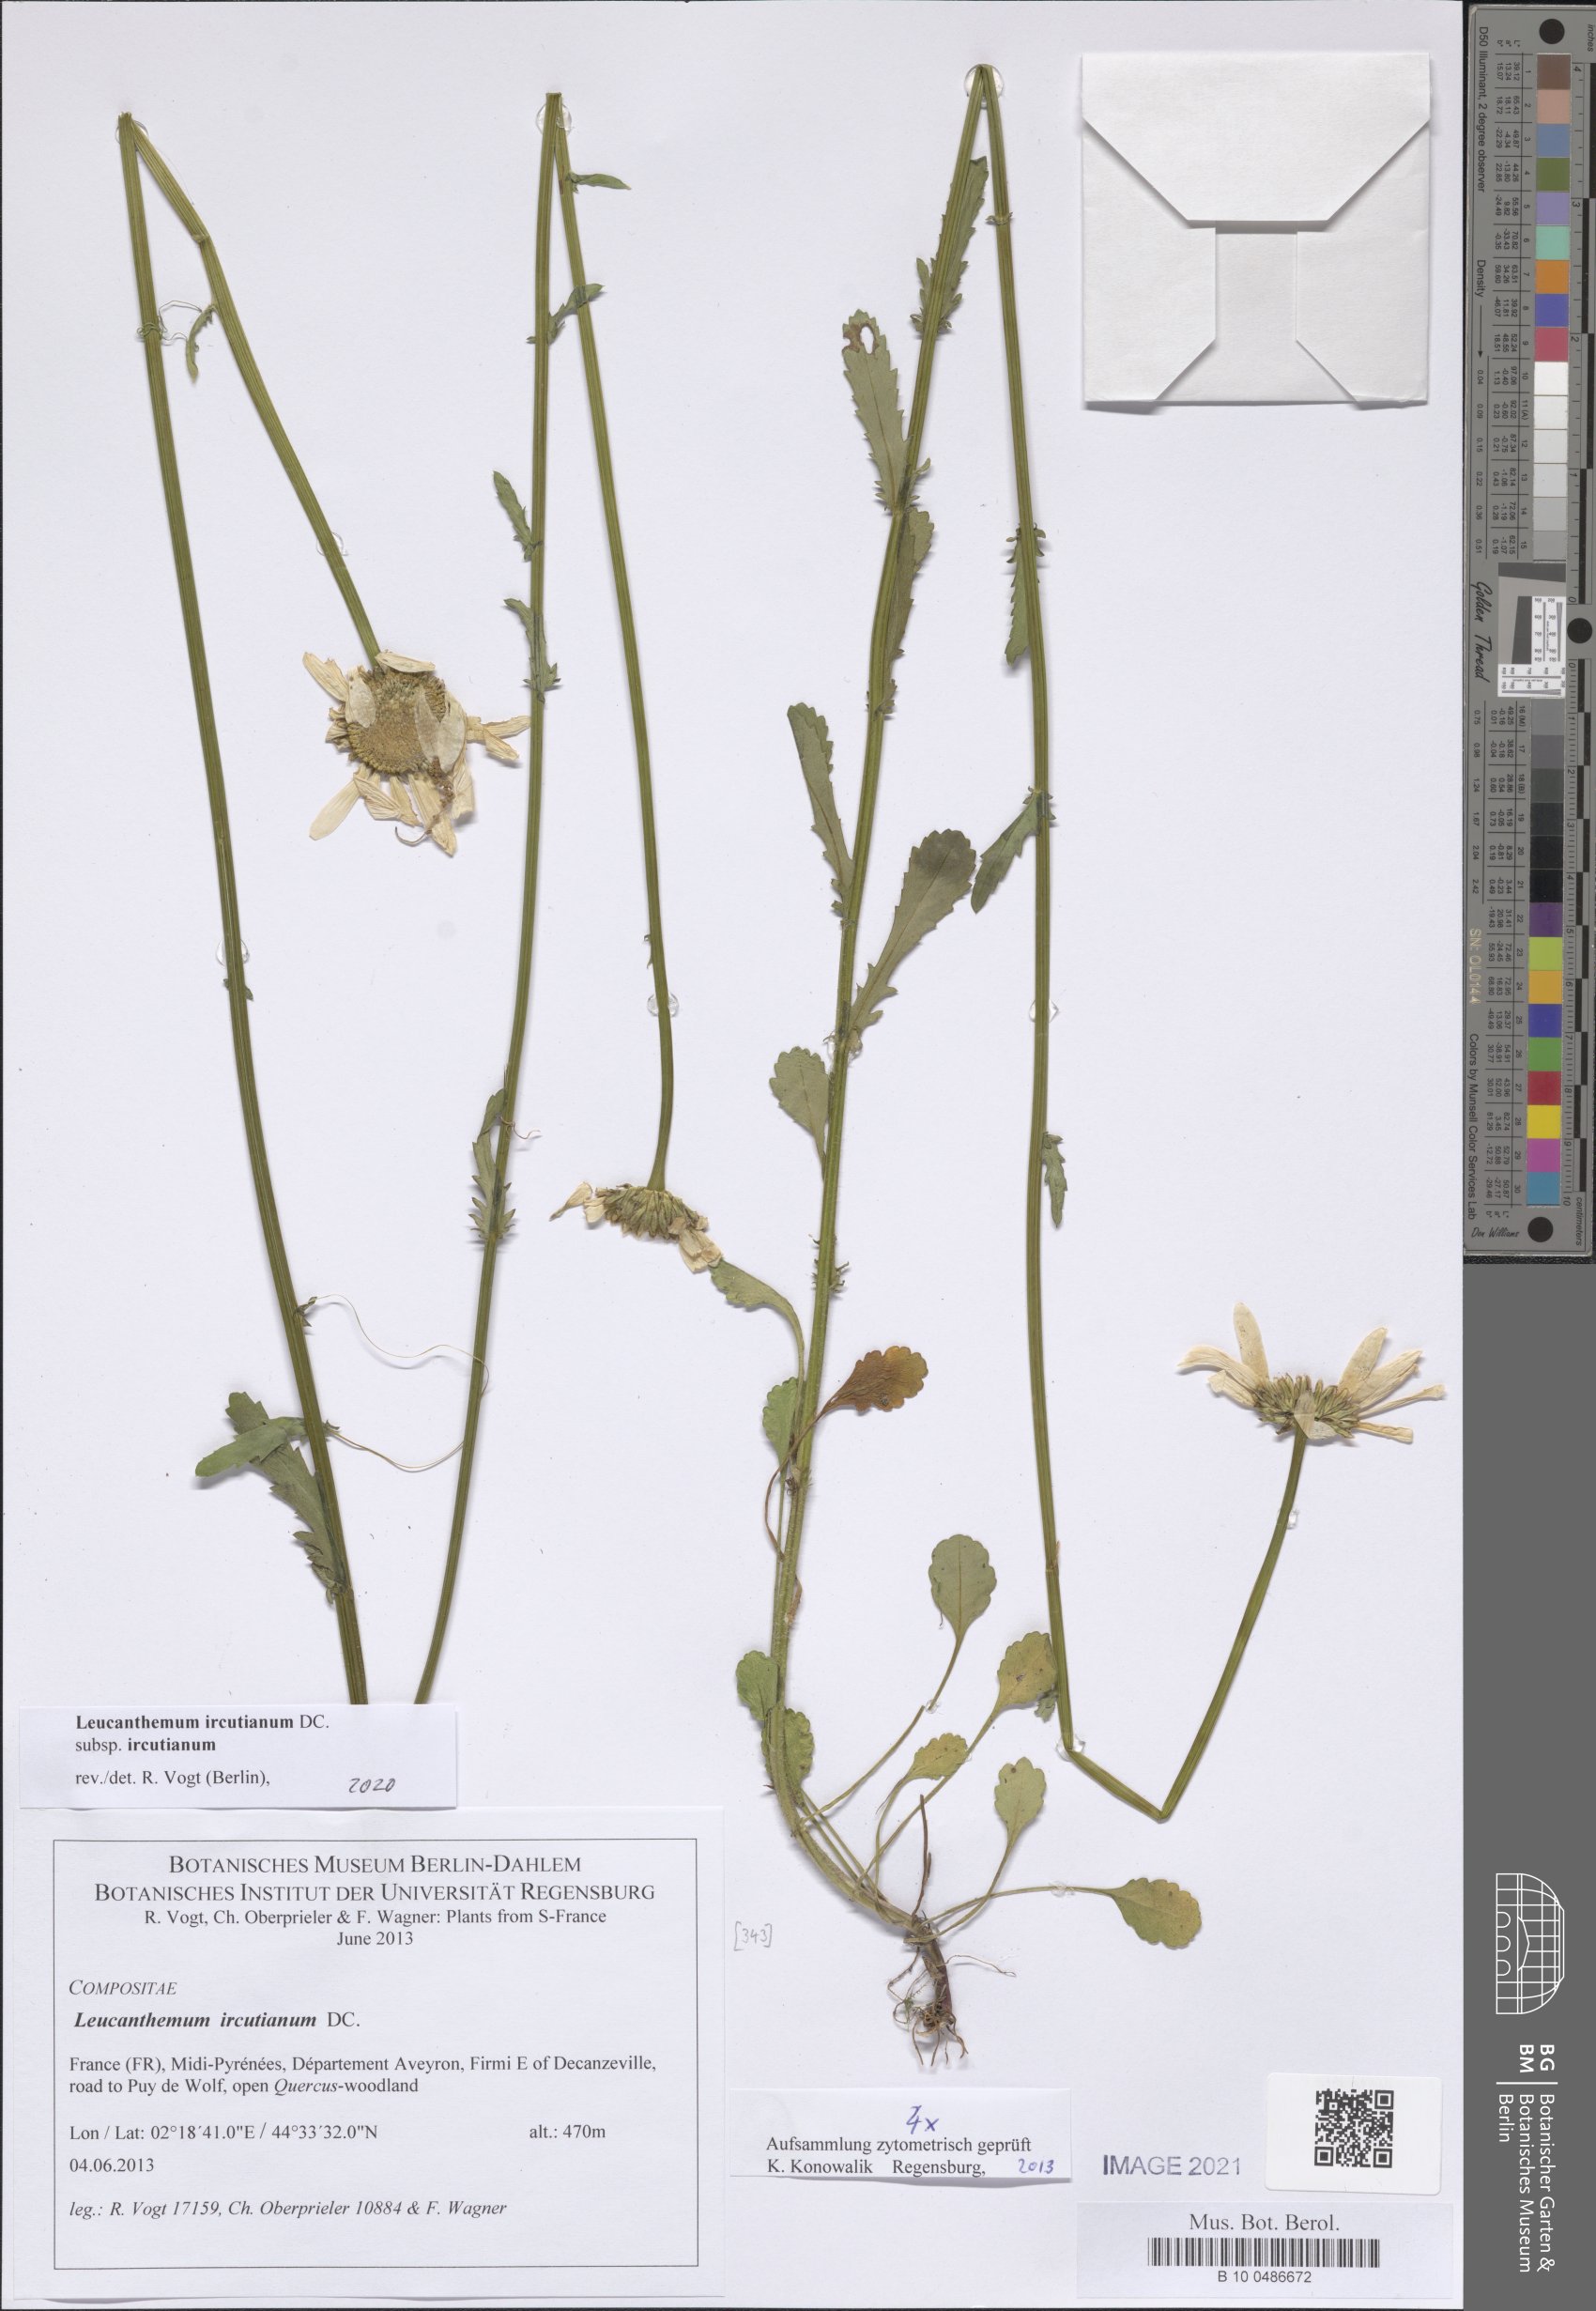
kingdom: Plantae
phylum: Tracheophyta
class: Magnoliopsida
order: Asterales
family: Asteraceae
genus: Leucanthemum
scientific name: Leucanthemum ircutianum
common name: Daisy
